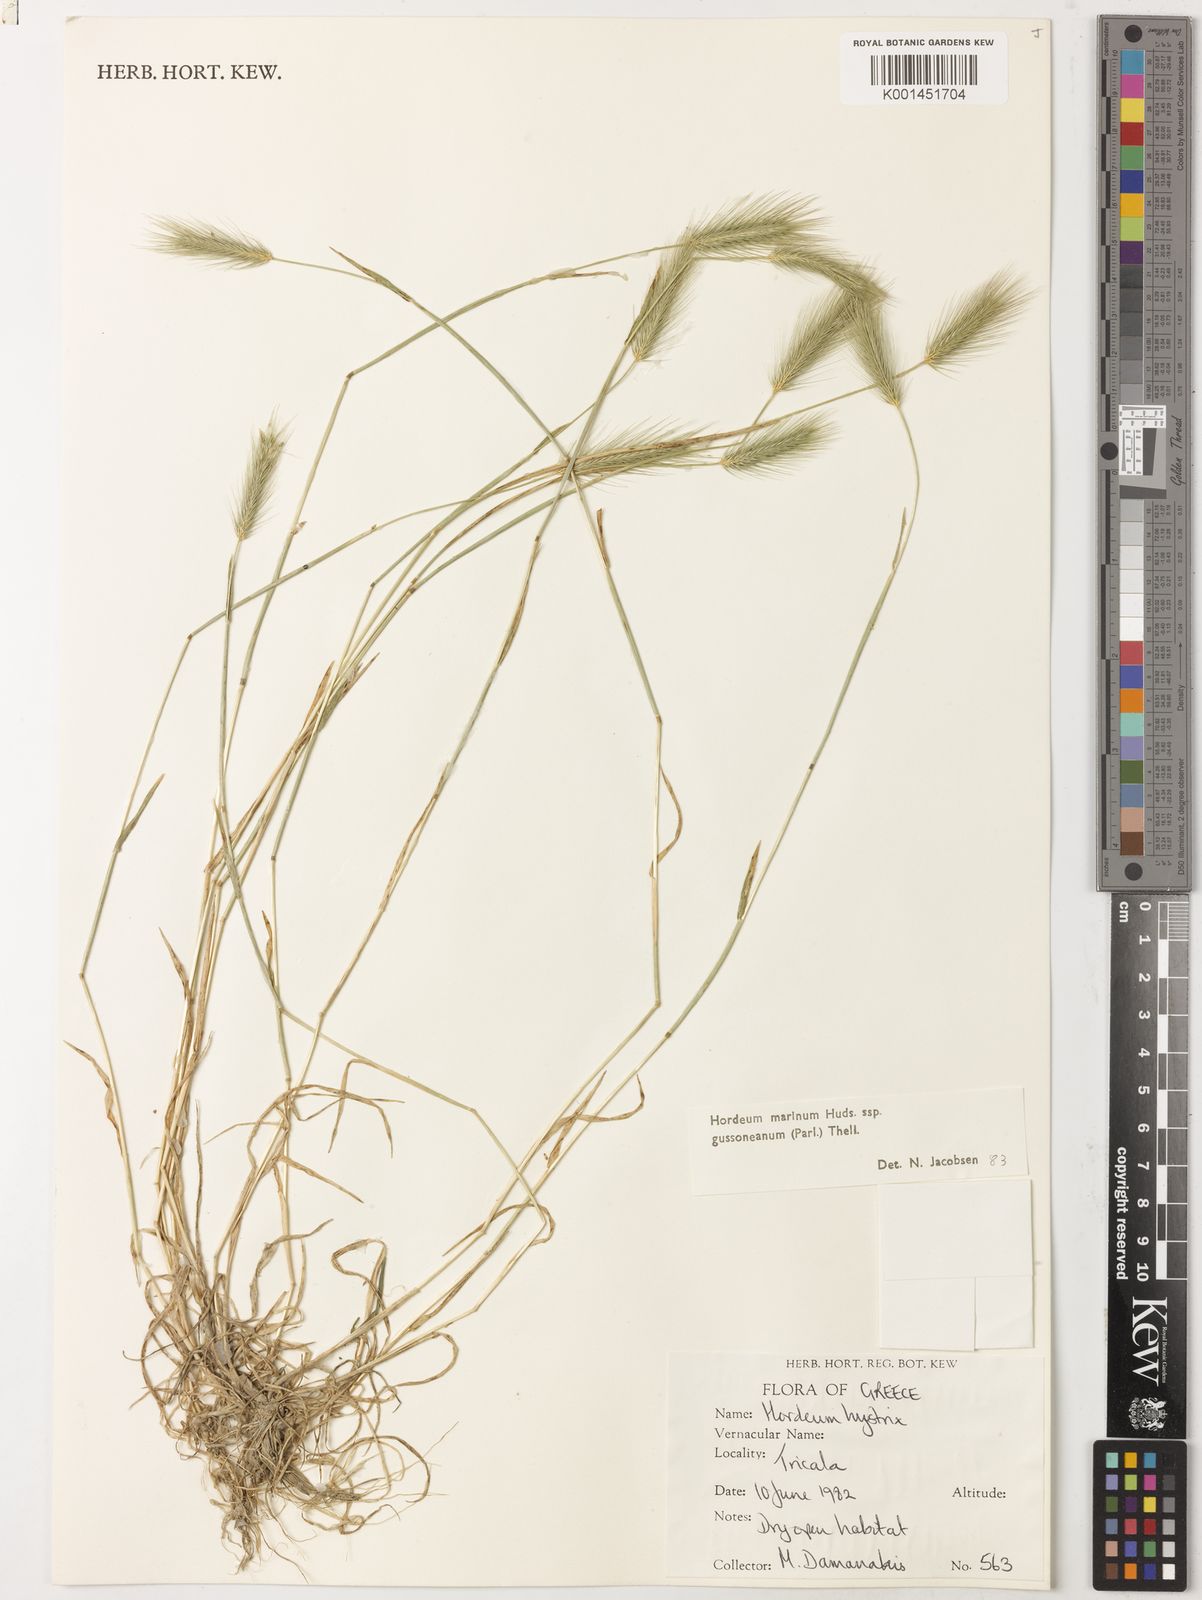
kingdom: Plantae
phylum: Tracheophyta
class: Liliopsida
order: Poales
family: Poaceae
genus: Hordeum
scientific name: Hordeum marinum
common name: Sea barley
